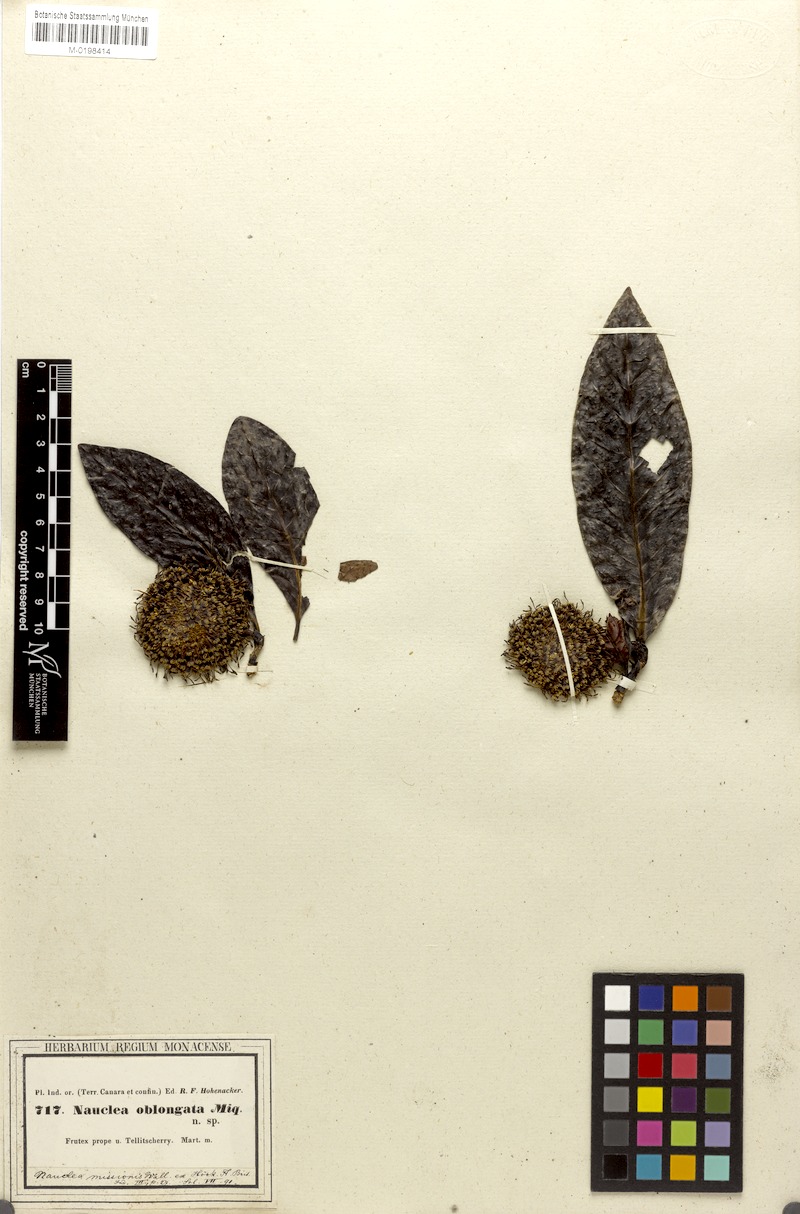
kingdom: Plantae
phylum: Tracheophyta
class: Magnoliopsida
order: Gentianales
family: Rubiaceae
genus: Ochreinauclea
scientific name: Ochreinauclea missionis
